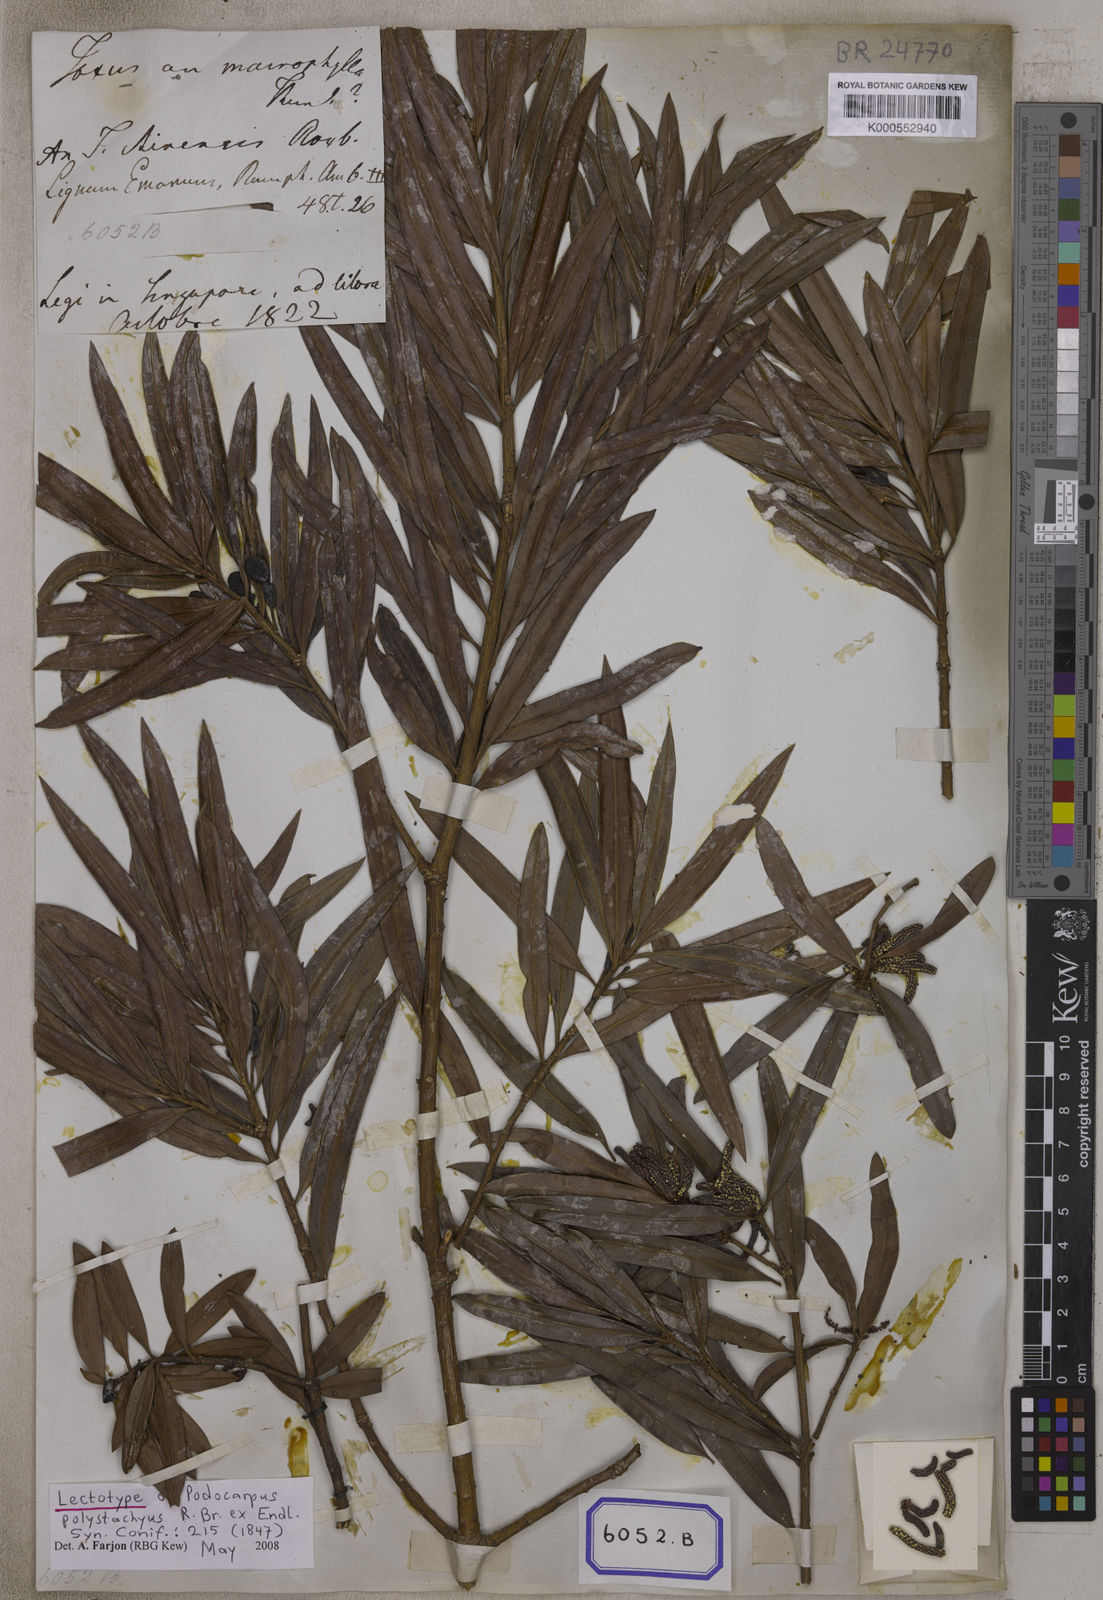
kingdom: Plantae
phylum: Tracheophyta
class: Pinopsida
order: Pinales
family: Podocarpaceae
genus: Podocarpus
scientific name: Podocarpus
